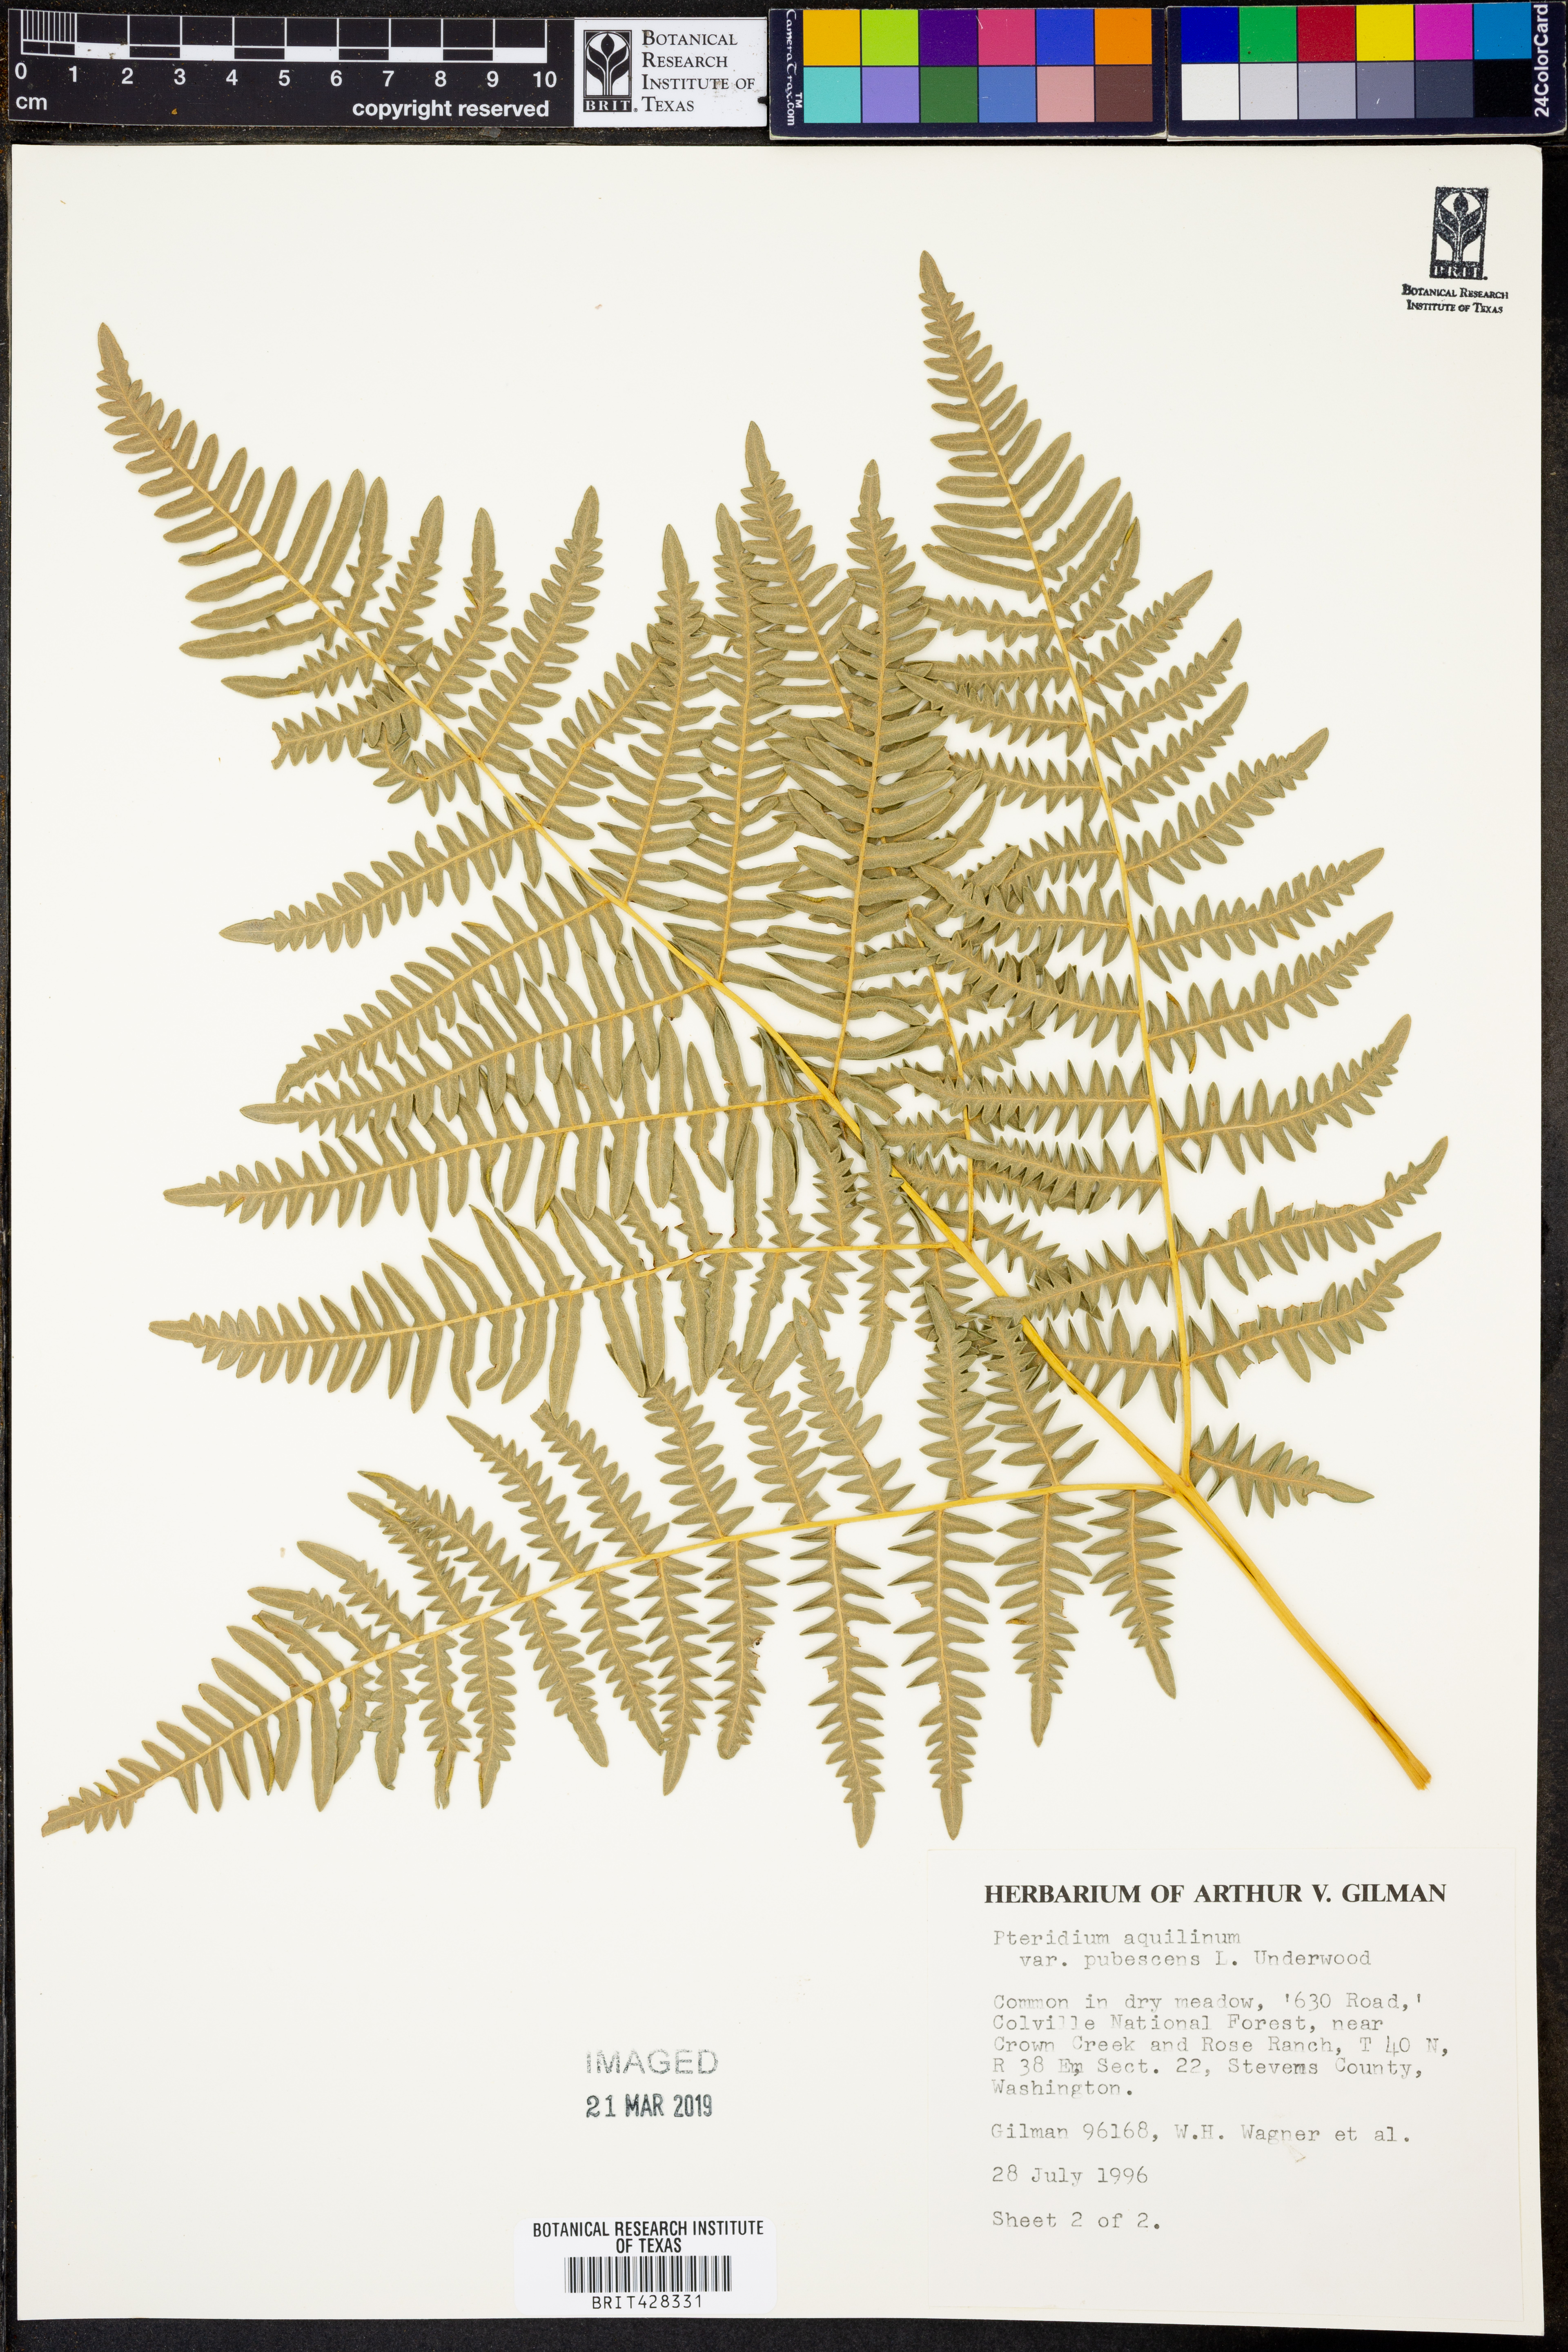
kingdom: Plantae
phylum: Tracheophyta
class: Polypodiopsida
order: Polypodiales
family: Dennstaedtiaceae
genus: Pteridium
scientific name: Pteridium aquilinum
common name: Bracken
